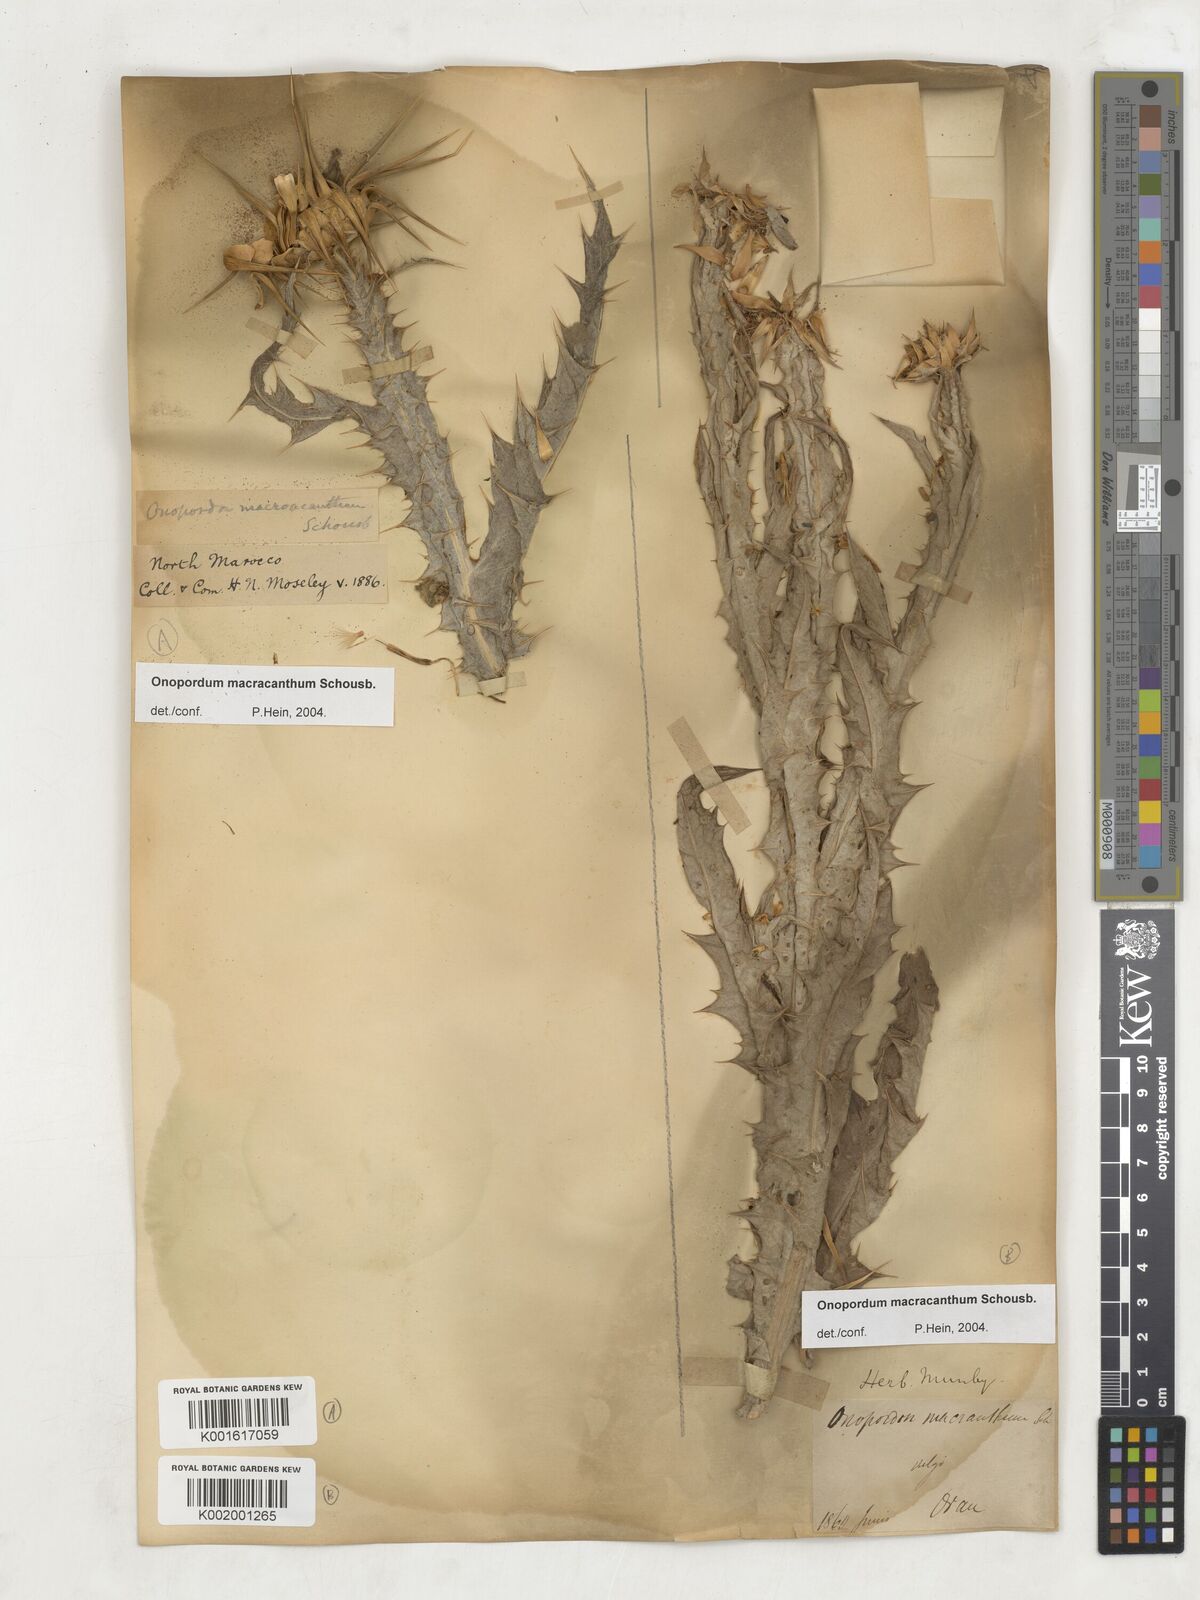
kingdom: Plantae
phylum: Tracheophyta
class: Magnoliopsida
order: Asterales
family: Asteraceae
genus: Onopordum
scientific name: Onopordum macracanthum
